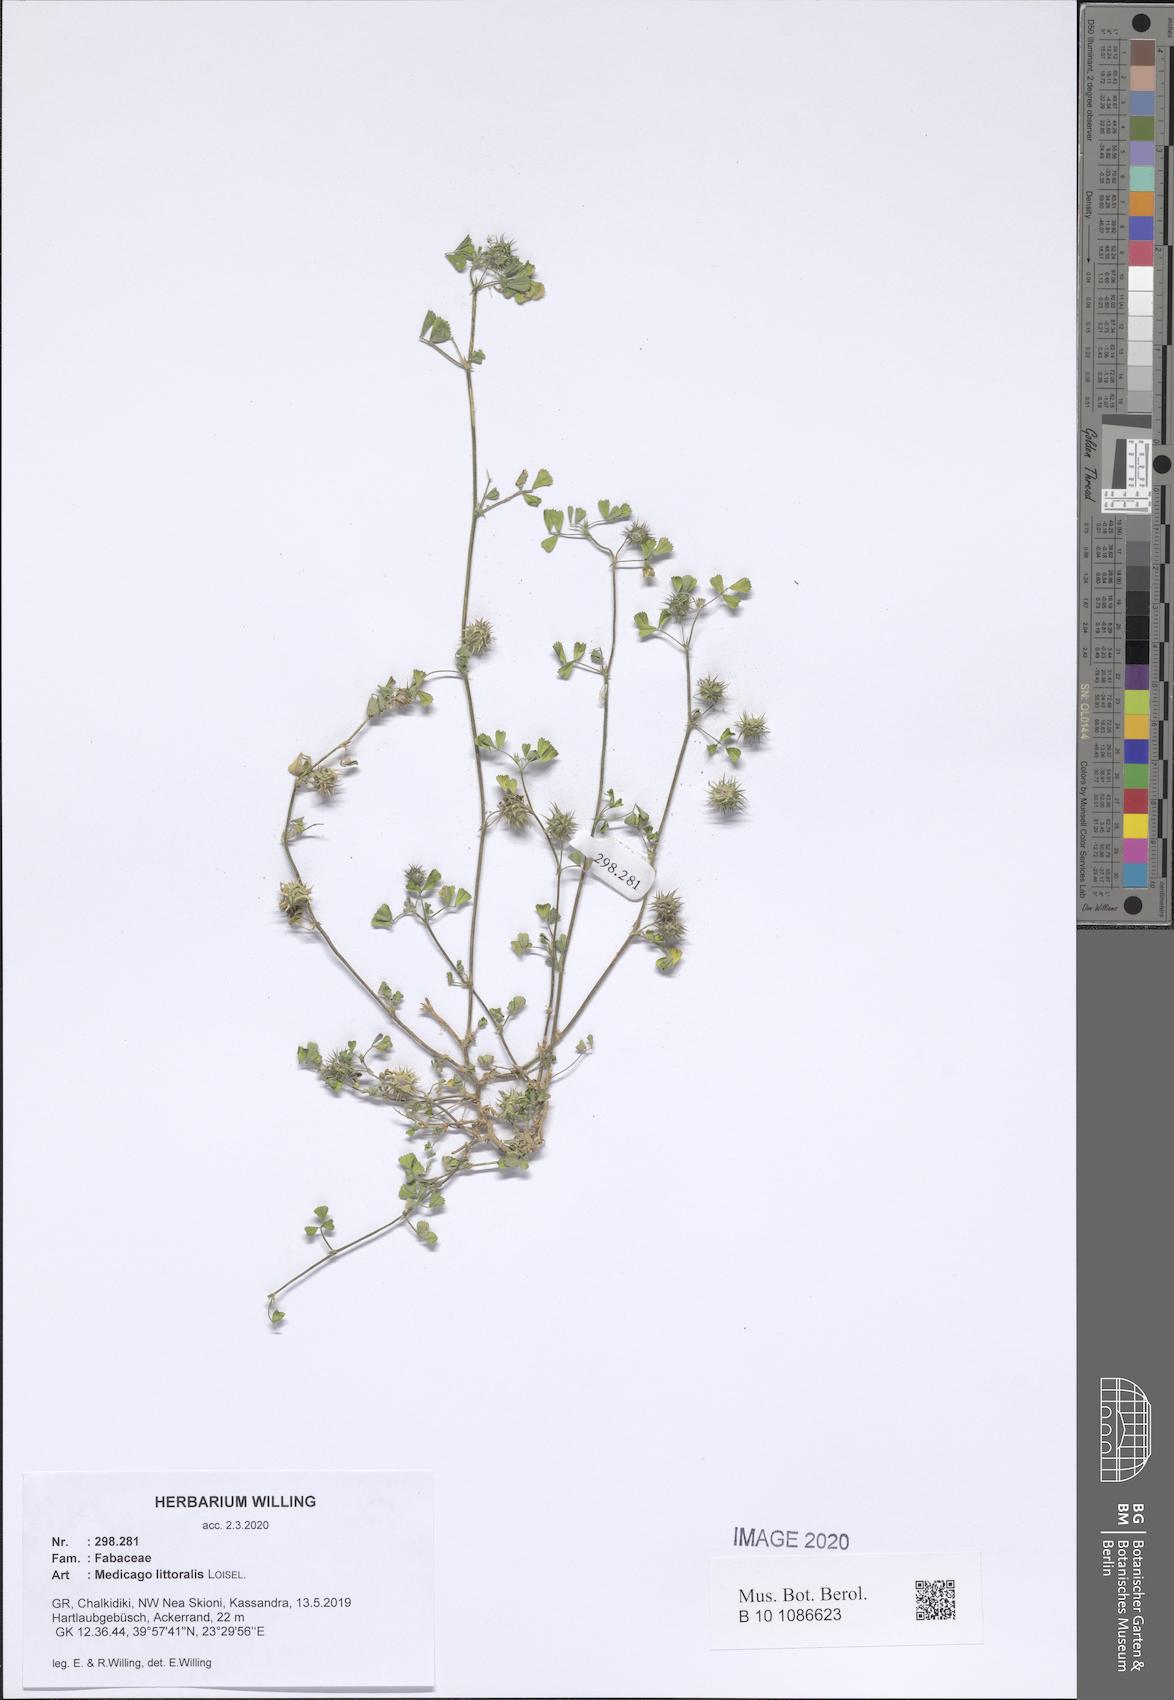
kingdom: Plantae
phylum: Tracheophyta
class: Magnoliopsida
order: Fabales
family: Fabaceae
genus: Medicago
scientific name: Medicago littoralis
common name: Shore medick
